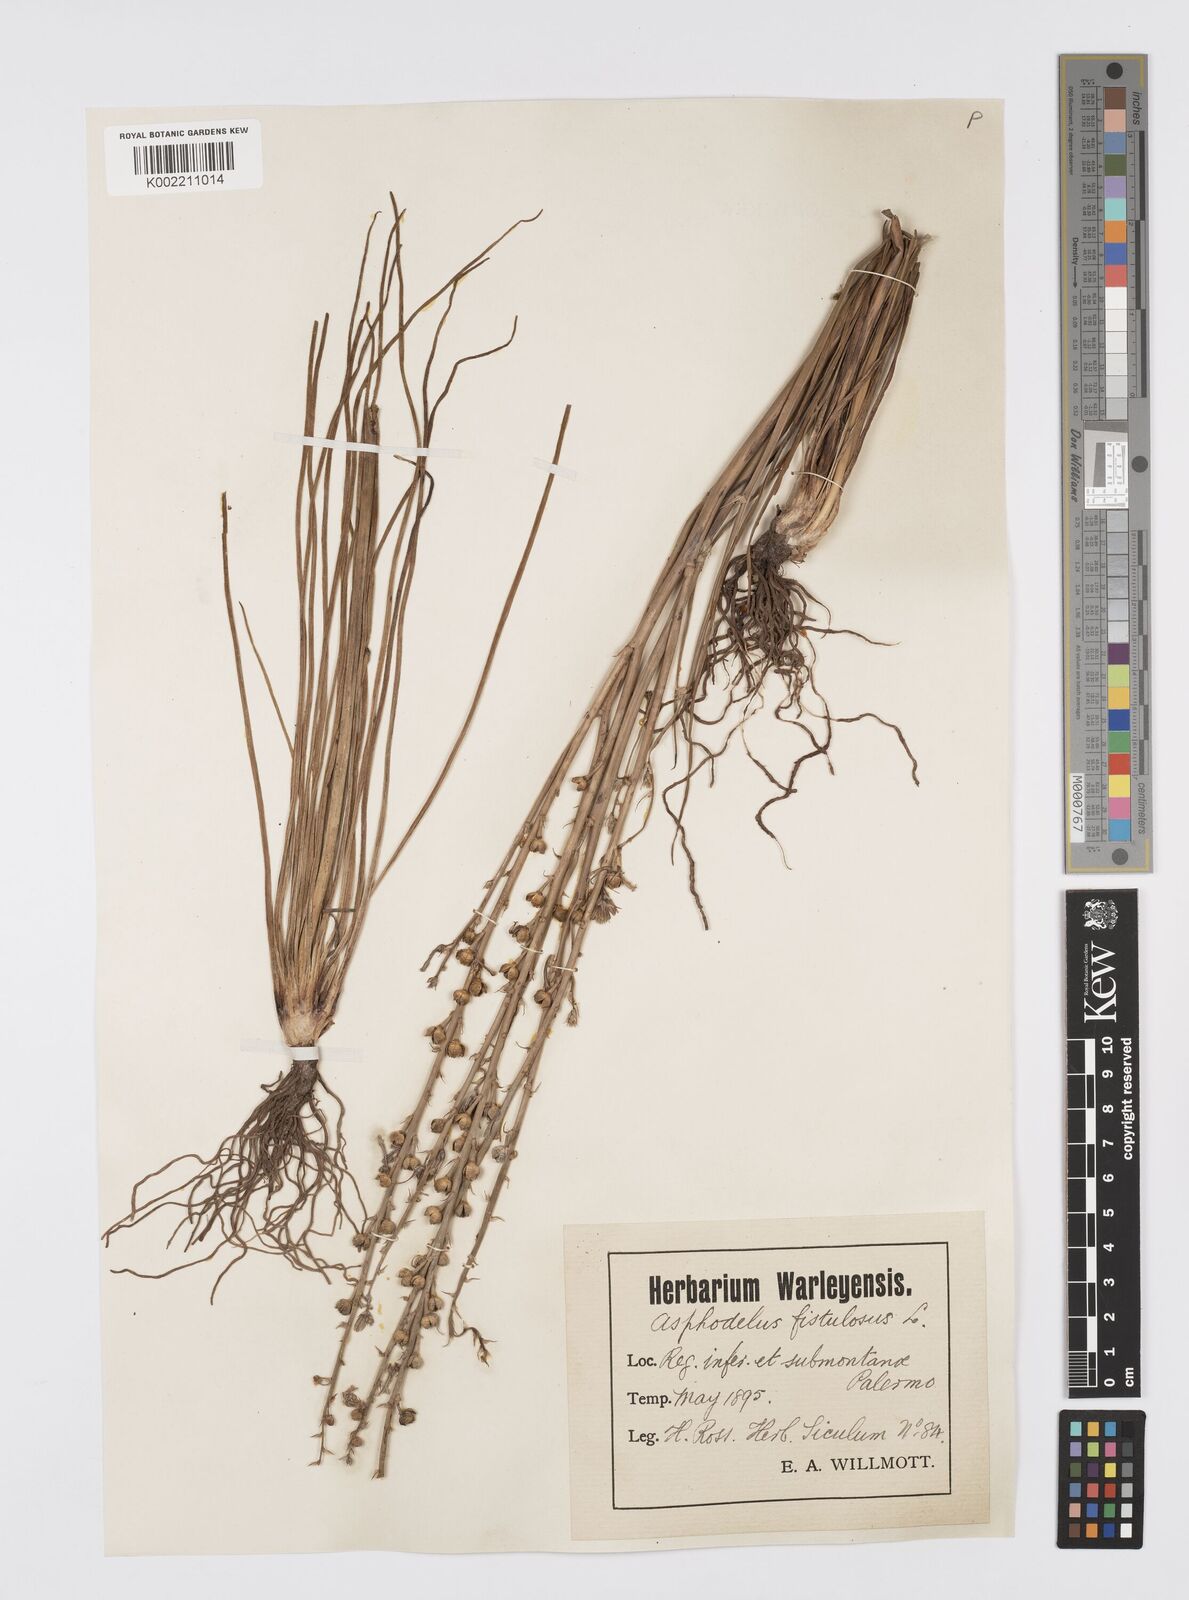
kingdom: Plantae
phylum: Tracheophyta
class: Liliopsida
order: Asparagales
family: Asphodelaceae
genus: Asphodelus
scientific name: Asphodelus fistulosus
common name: Onionweed
